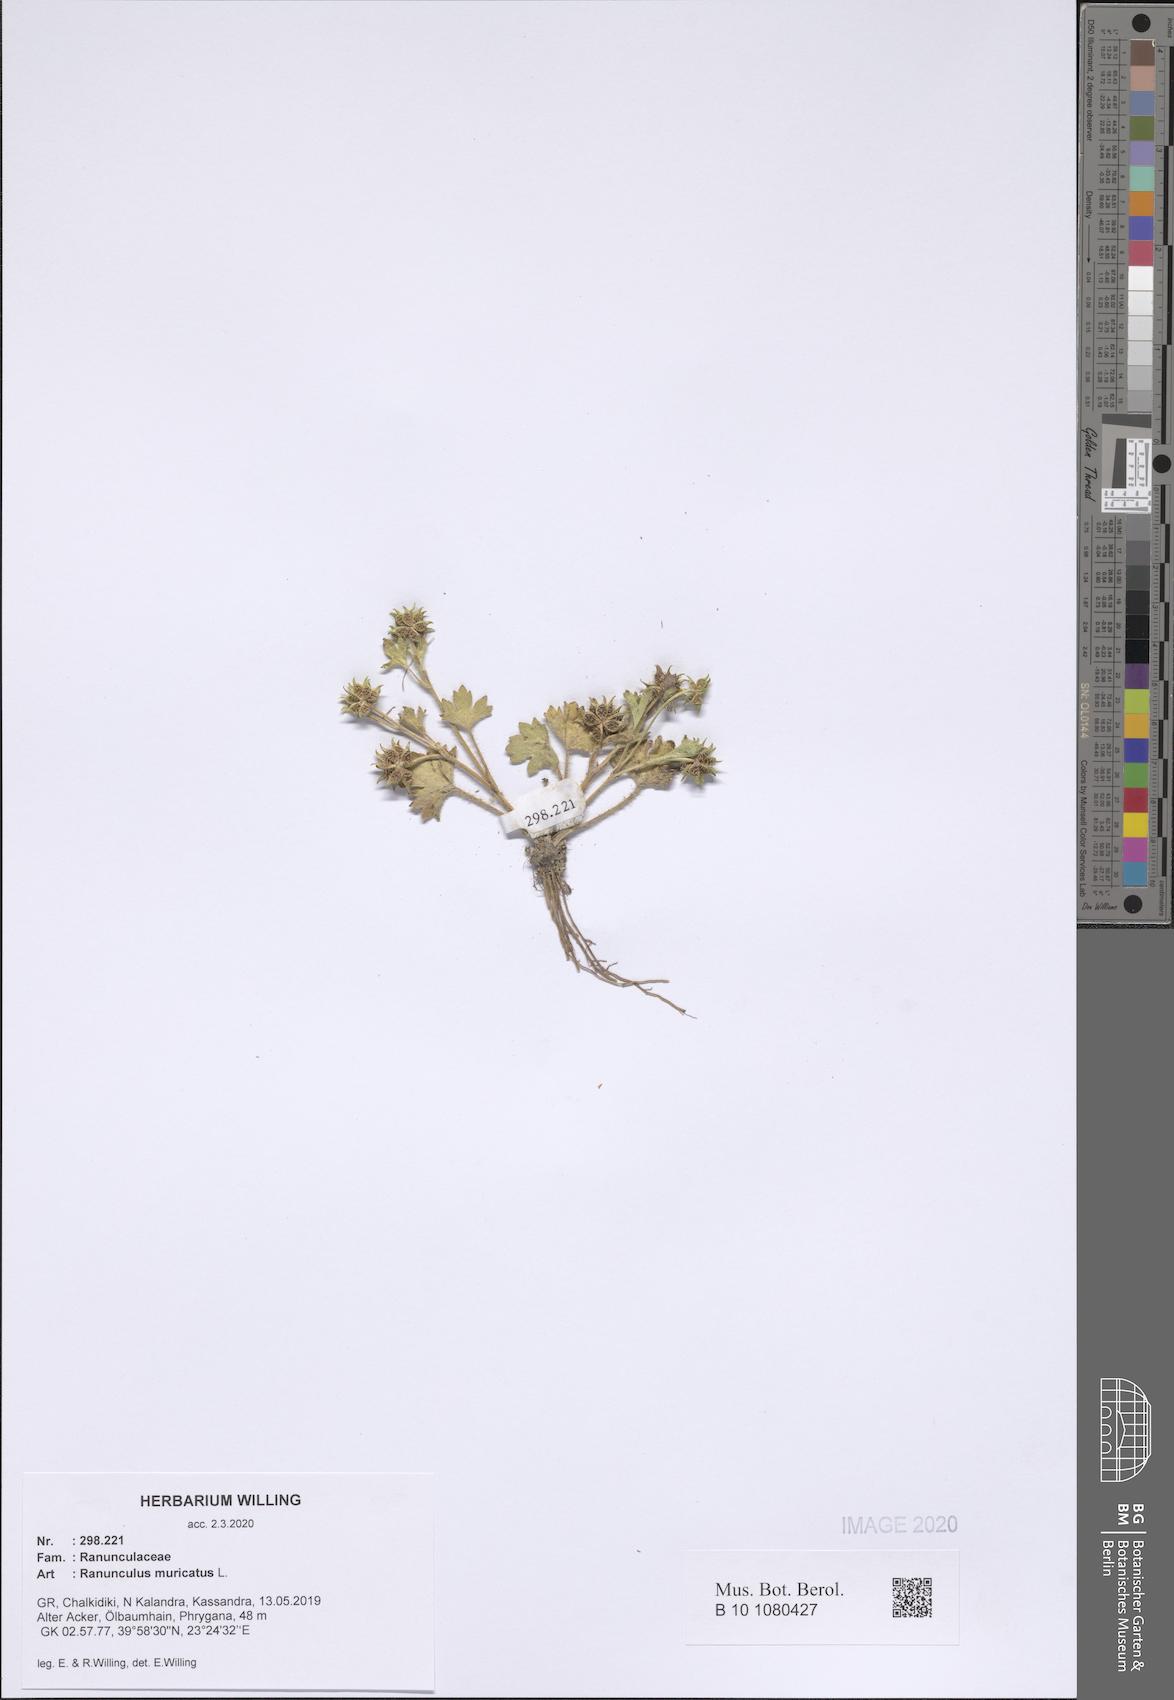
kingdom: Plantae
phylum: Tracheophyta
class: Magnoliopsida
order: Ranunculales
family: Ranunculaceae
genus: Ranunculus
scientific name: Ranunculus muricatus
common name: Rough-fruited buttercup
